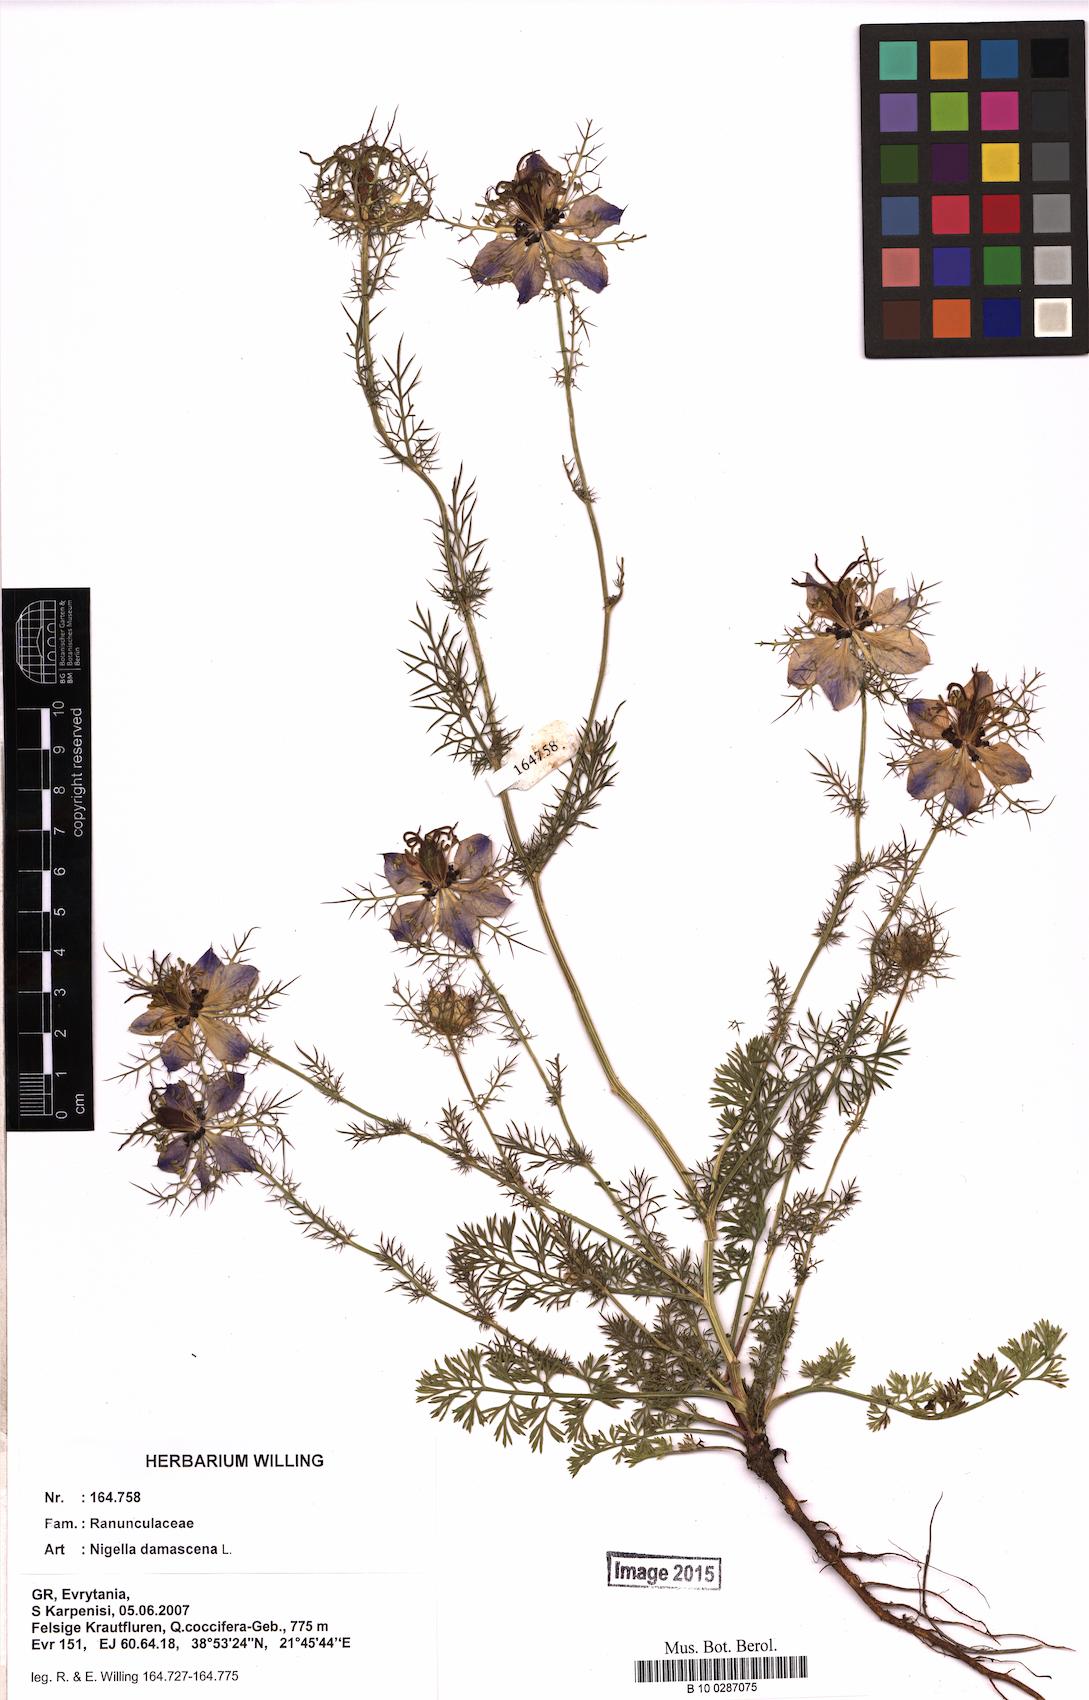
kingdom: Plantae
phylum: Tracheophyta
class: Magnoliopsida
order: Ranunculales
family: Ranunculaceae
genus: Nigella
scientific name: Nigella damascena
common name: Love-in-a-mist
